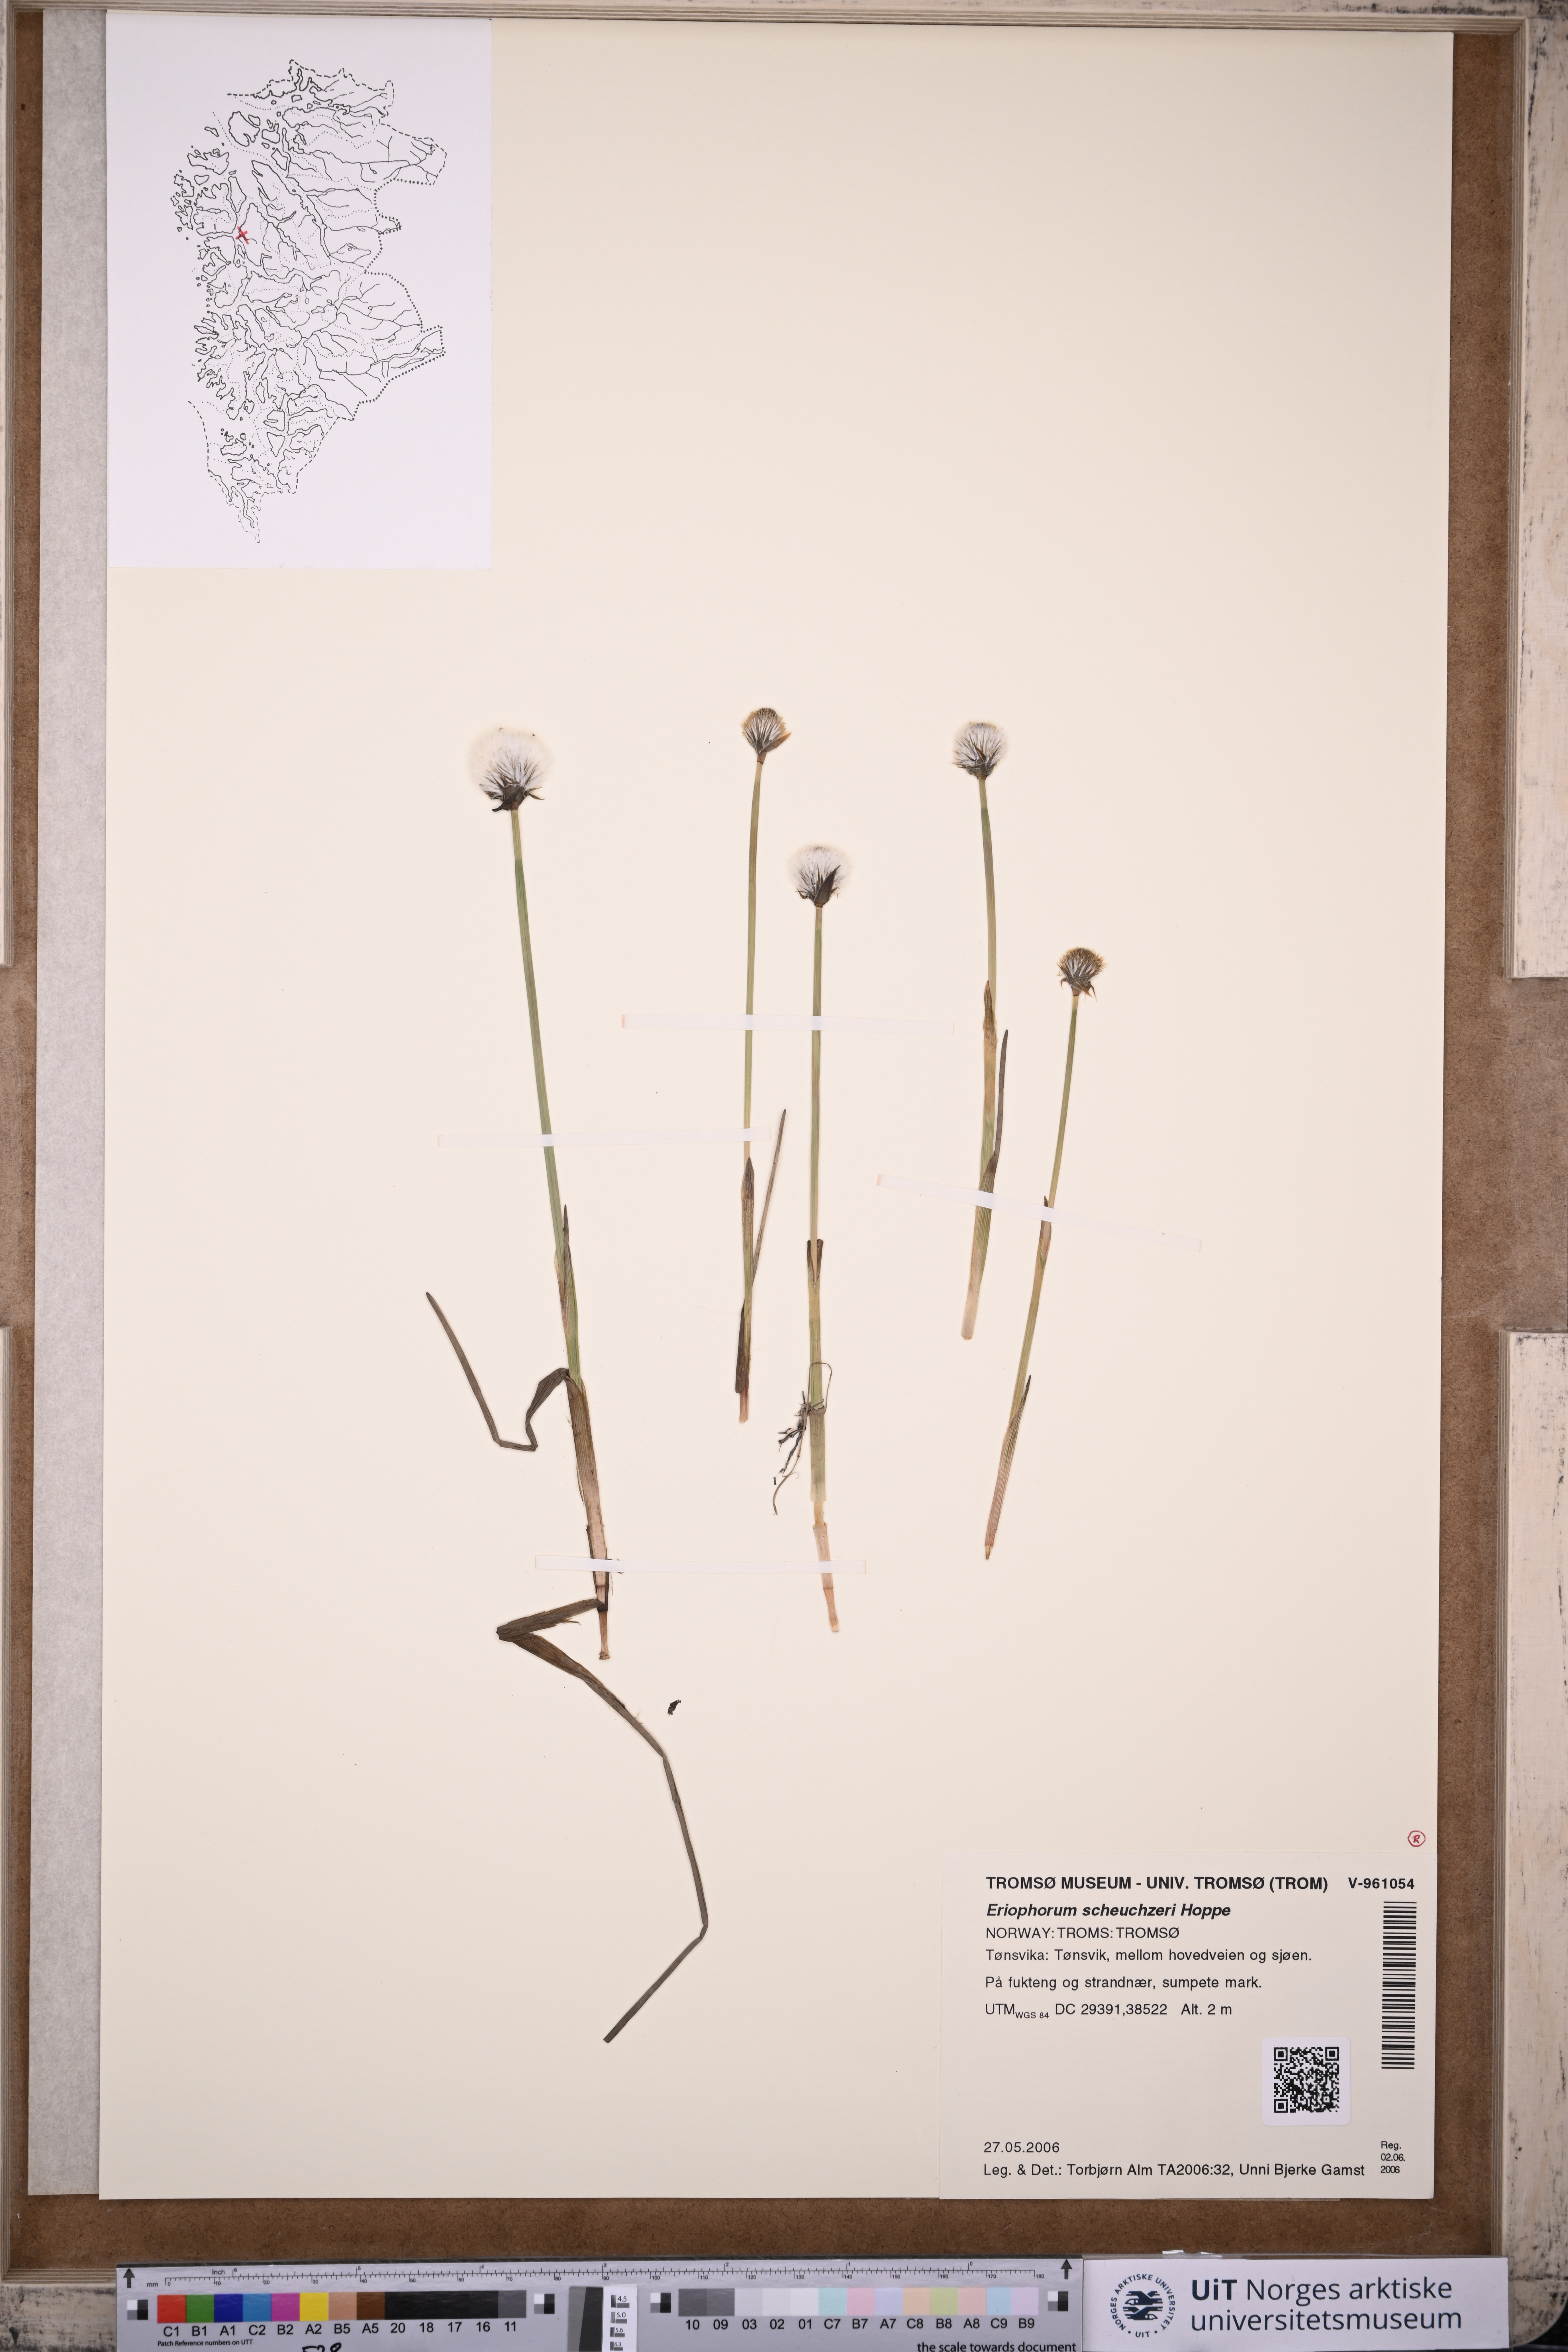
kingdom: Plantae
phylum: Tracheophyta
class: Liliopsida
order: Poales
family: Cyperaceae
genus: Eriophorum
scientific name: Eriophorum scheuchzeri
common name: Scheuchzer's cottongrass
